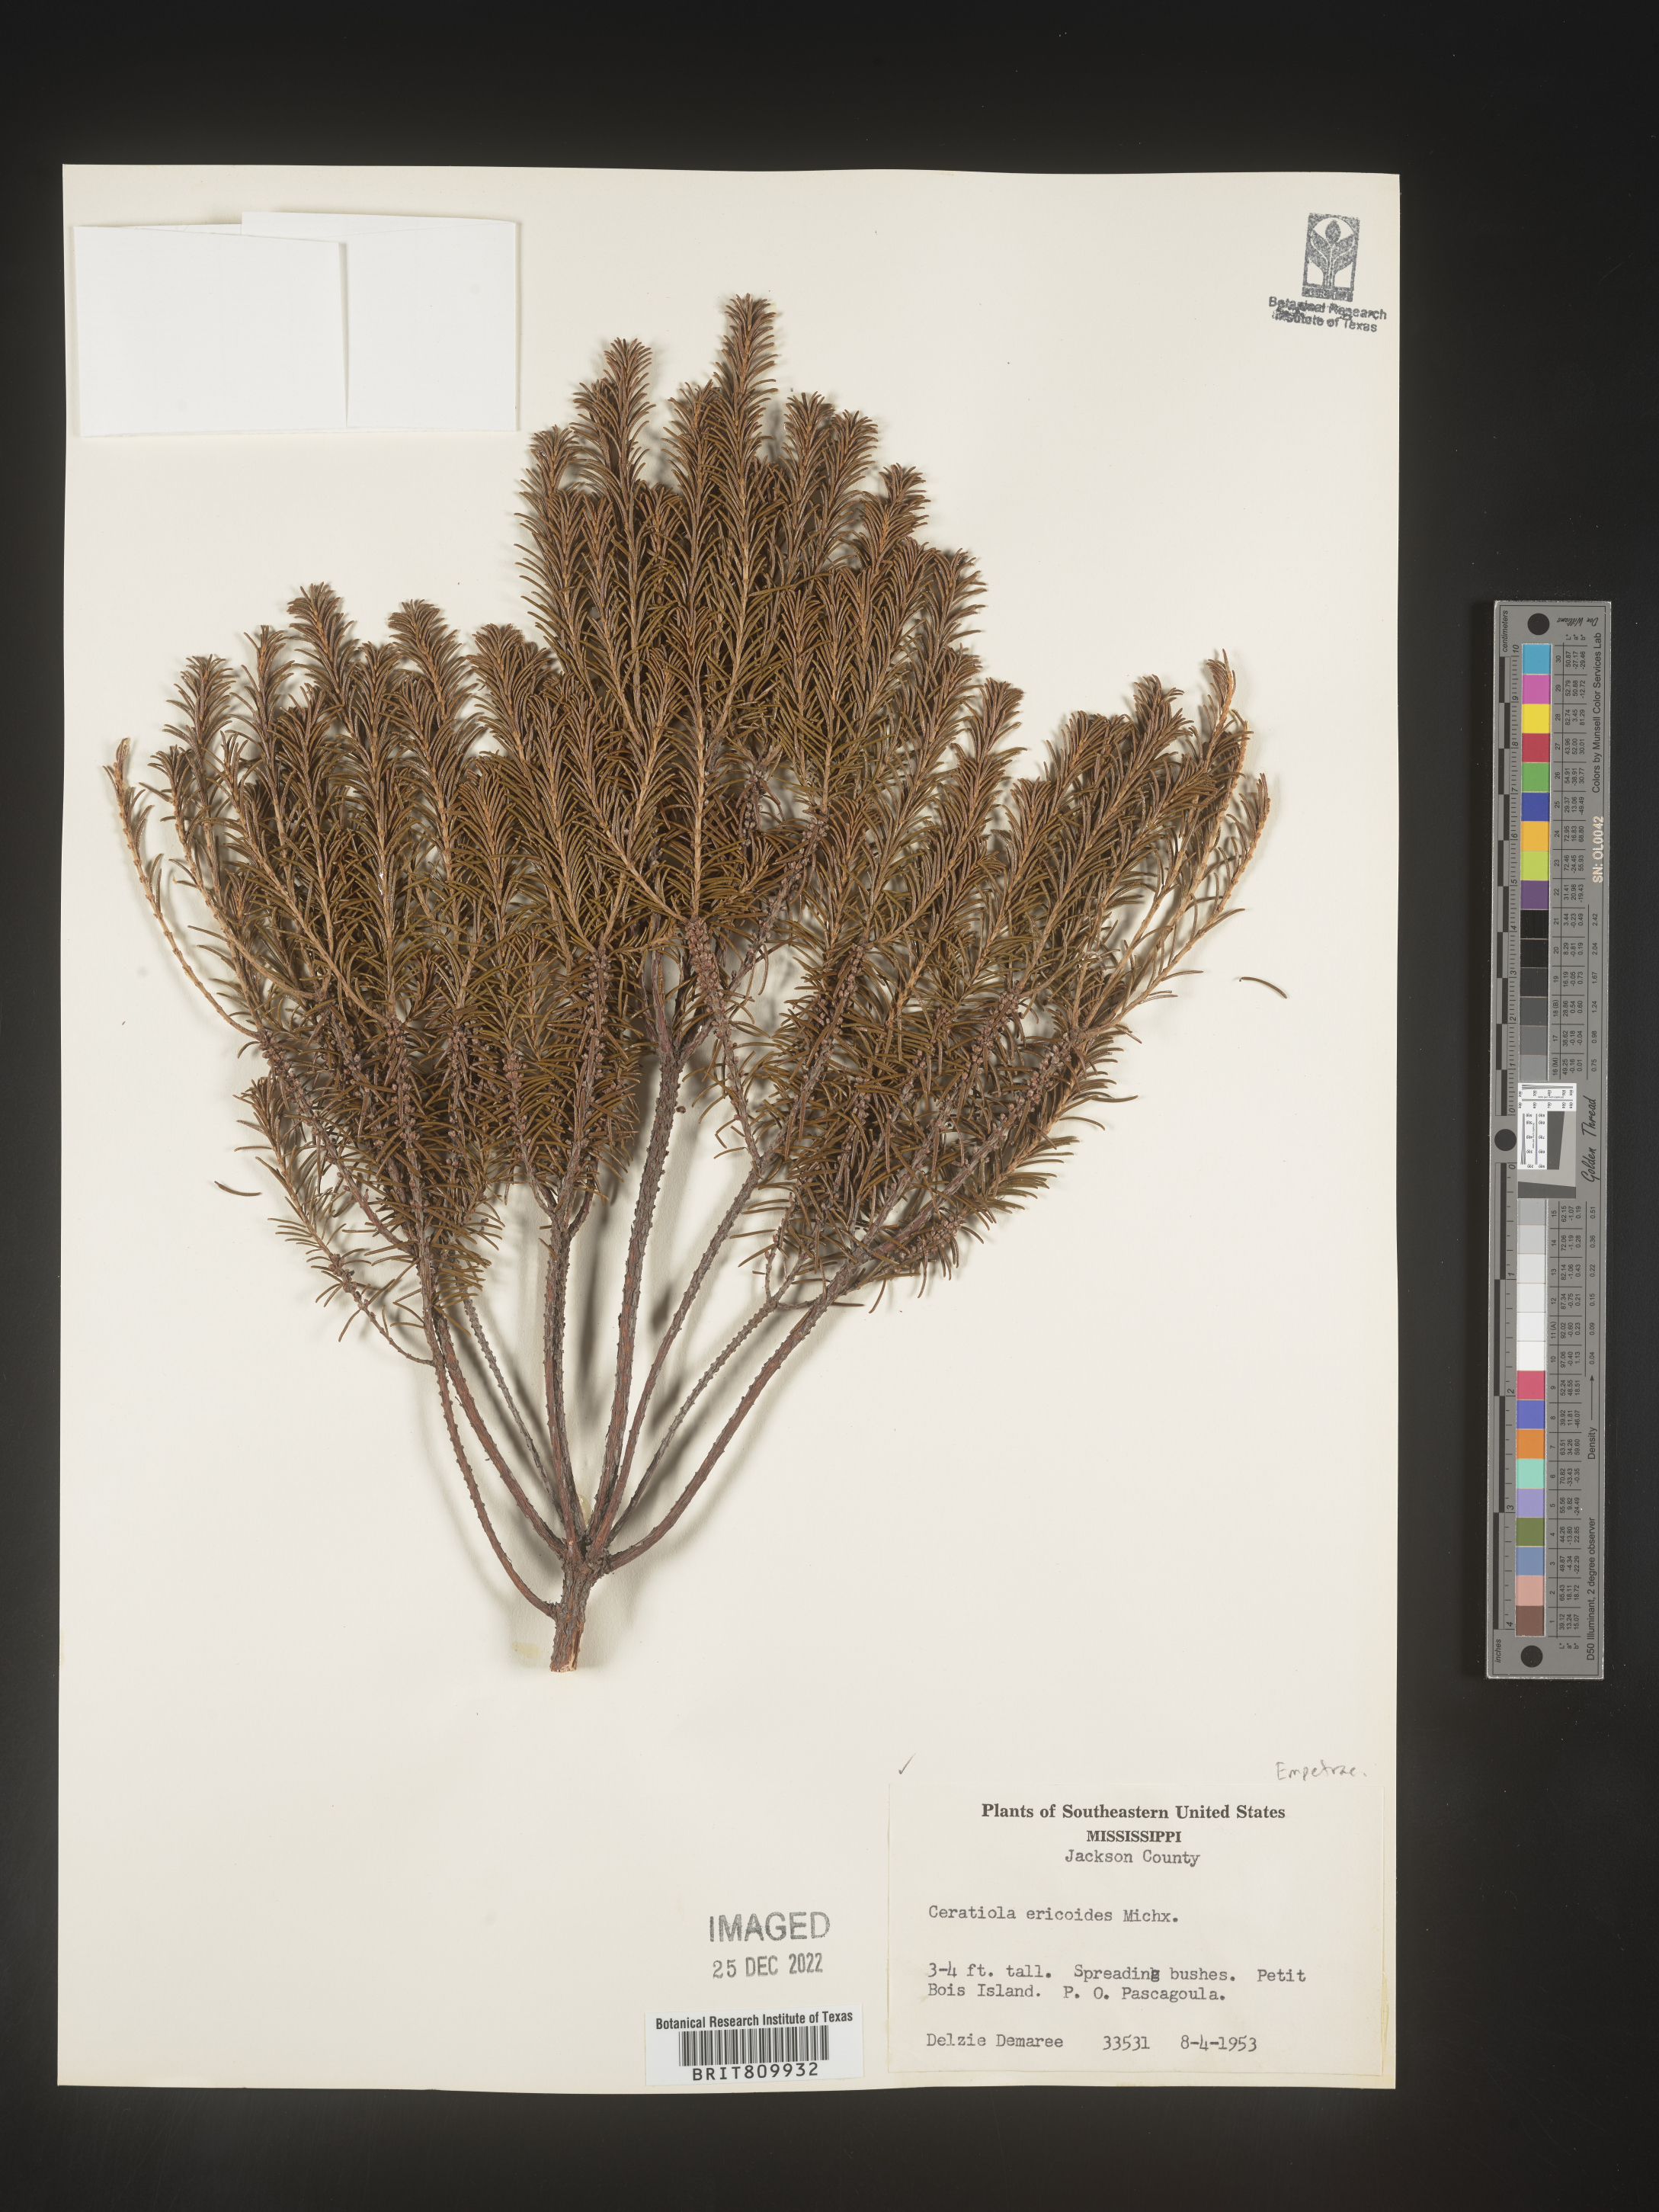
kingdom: Plantae
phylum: Tracheophyta
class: Magnoliopsida
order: Ericales
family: Ericaceae
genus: Ceratiola
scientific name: Ceratiola ericoides
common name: Sandhill-rosemary
